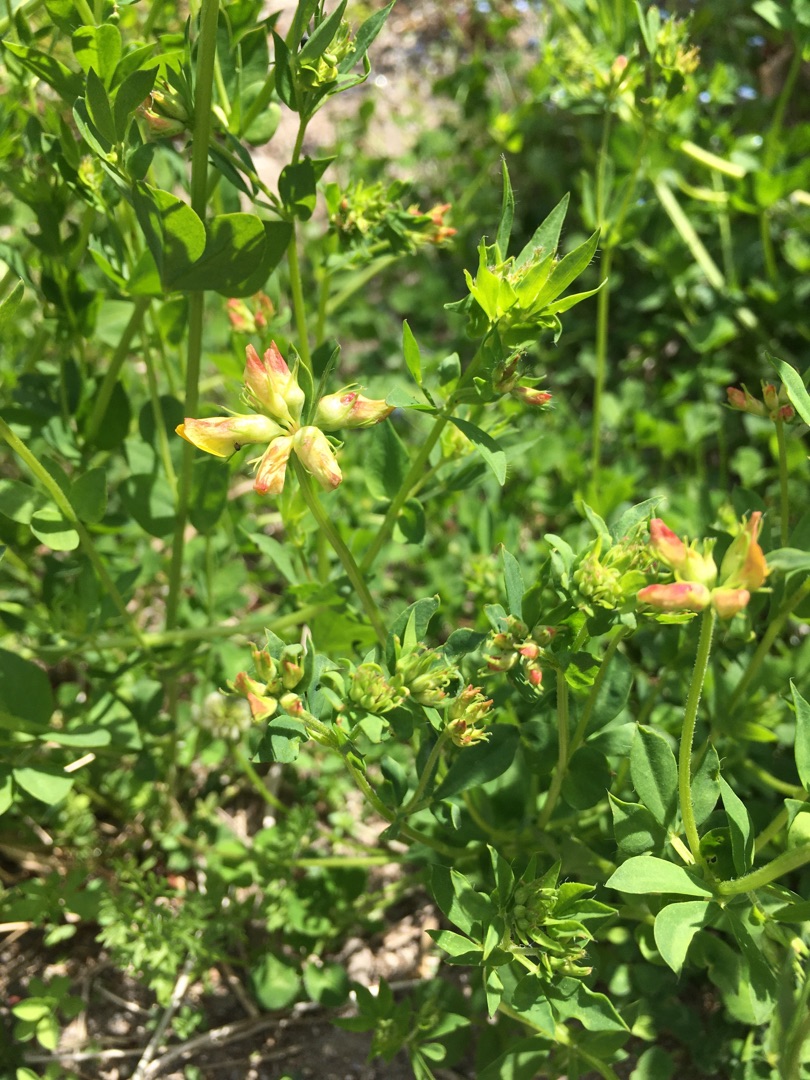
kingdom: Plantae
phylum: Tracheophyta
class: Magnoliopsida
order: Fabales
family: Fabaceae
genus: Lotus
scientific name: Lotus corniculatus
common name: Almindelig kællingetand
